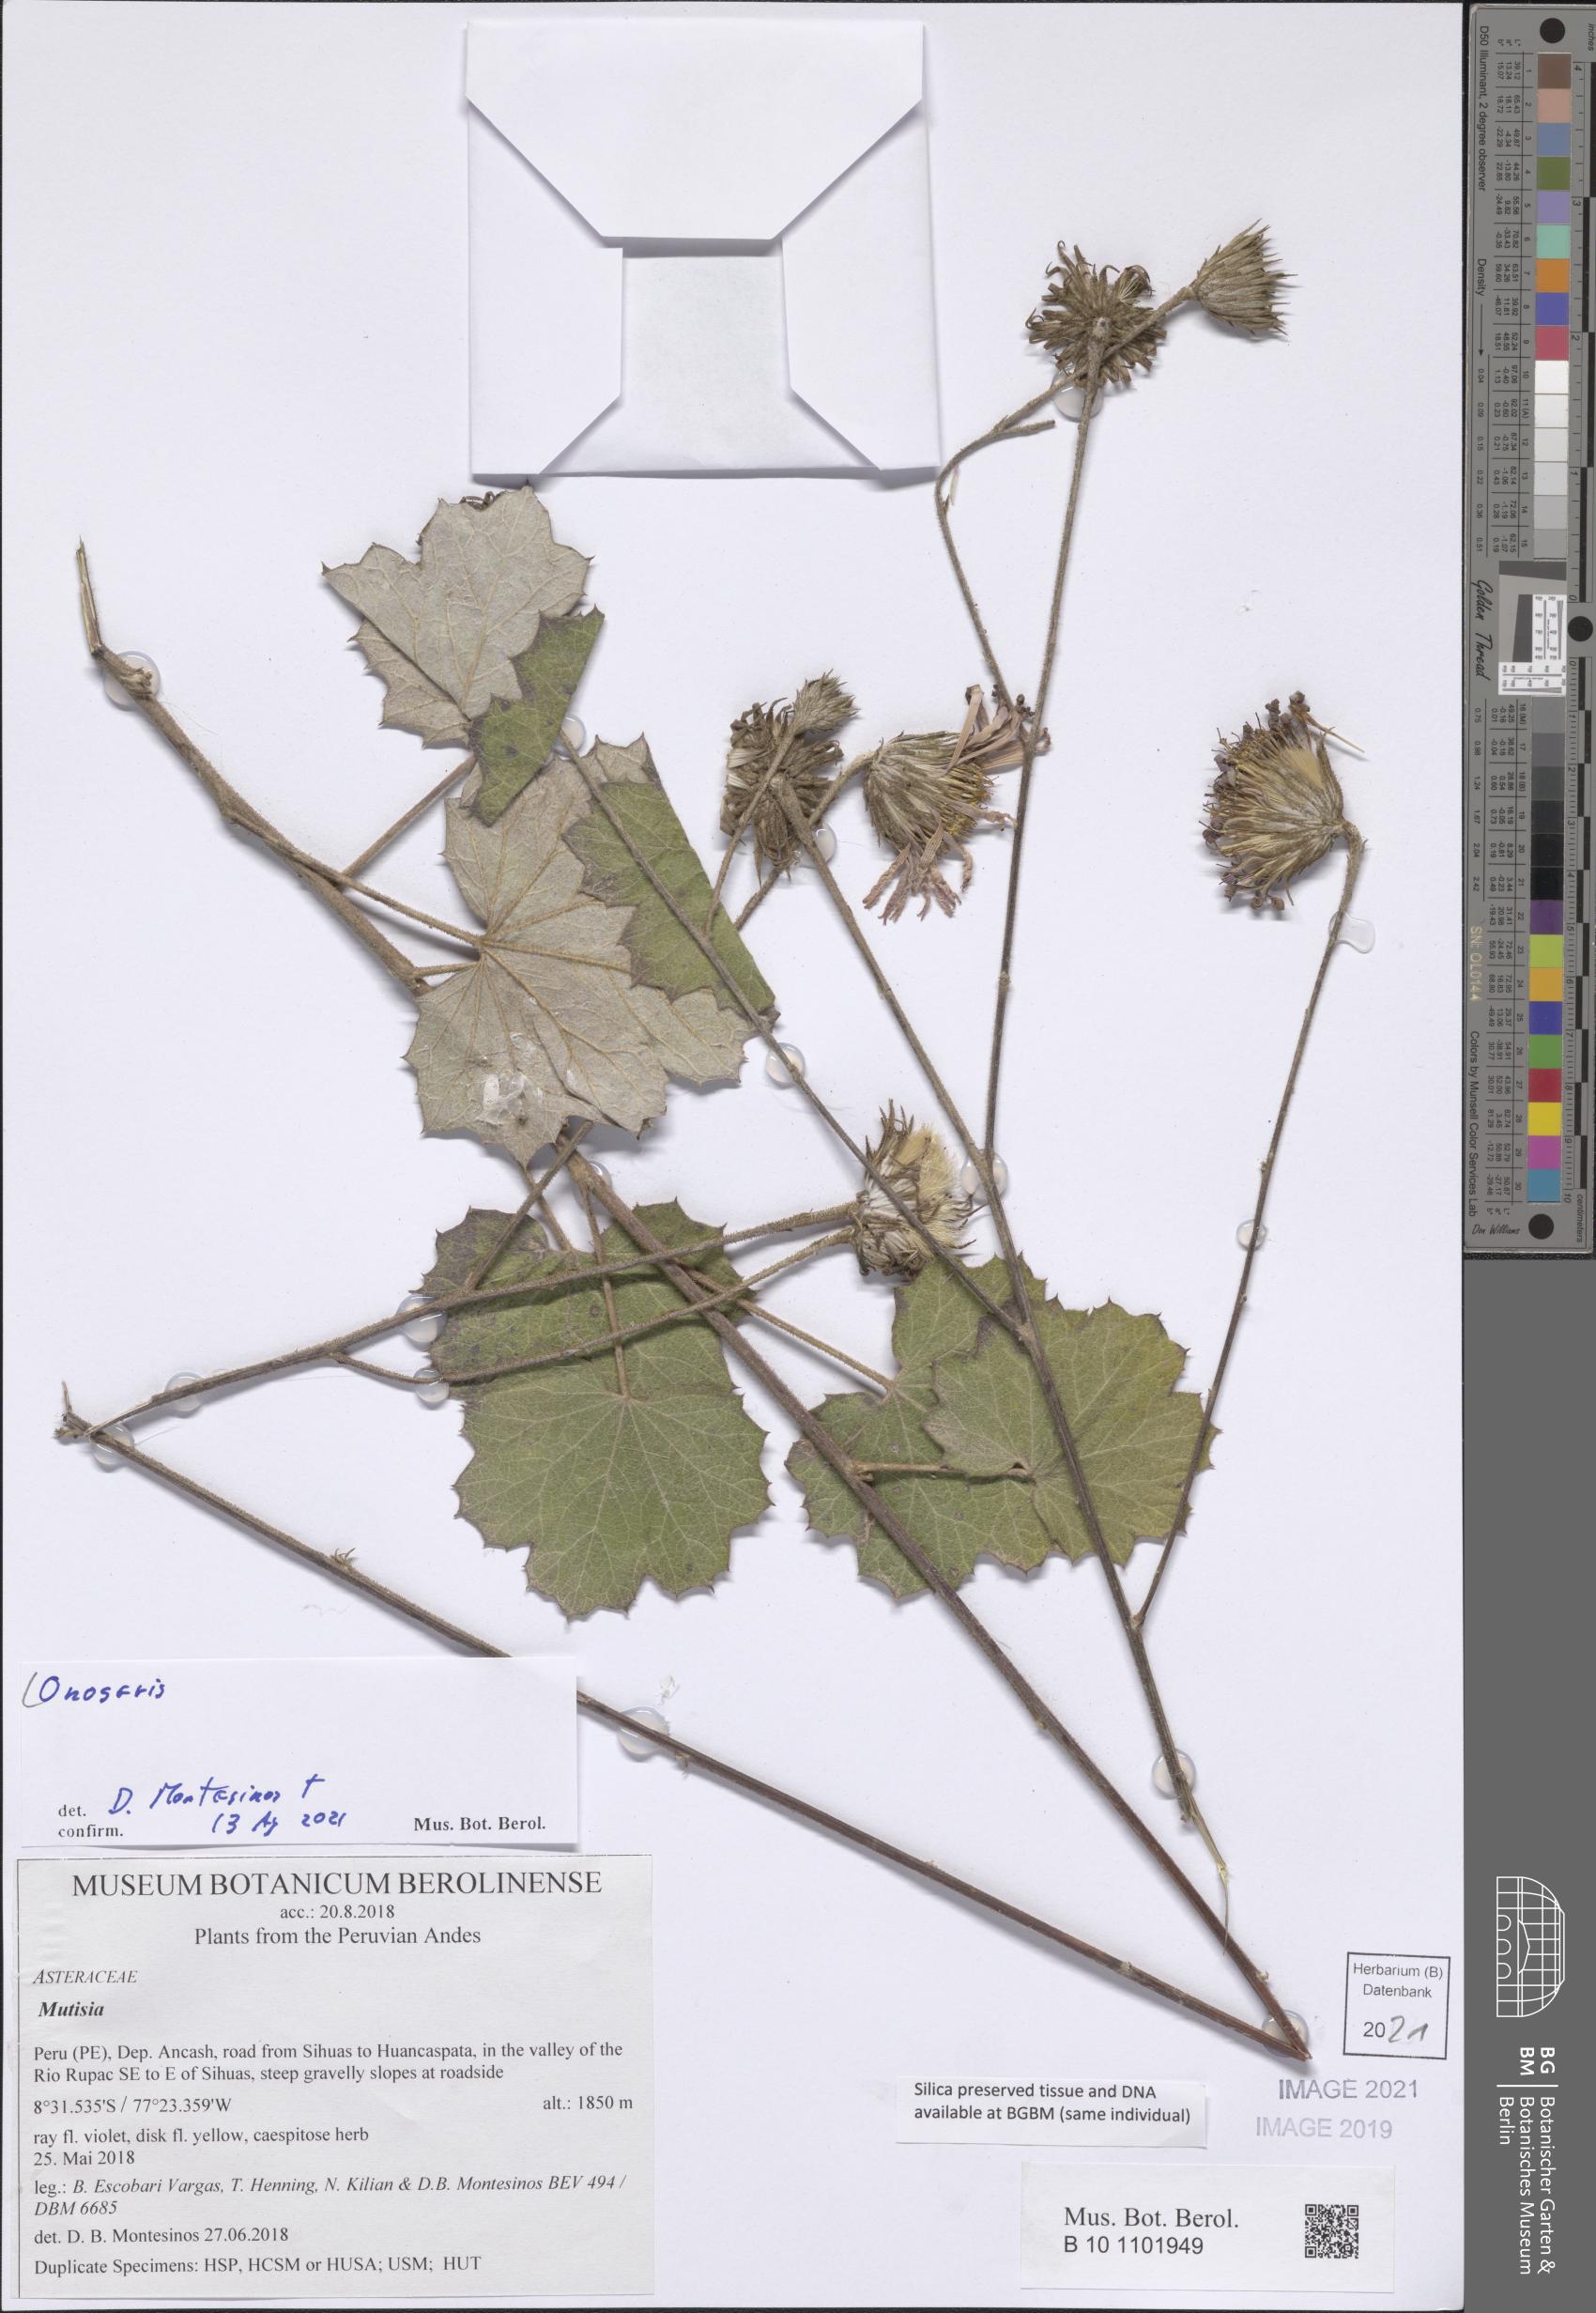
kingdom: Plantae
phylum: Tracheophyta
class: Magnoliopsida
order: Asterales
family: Asteraceae
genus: Onoseris
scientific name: Onoseris
